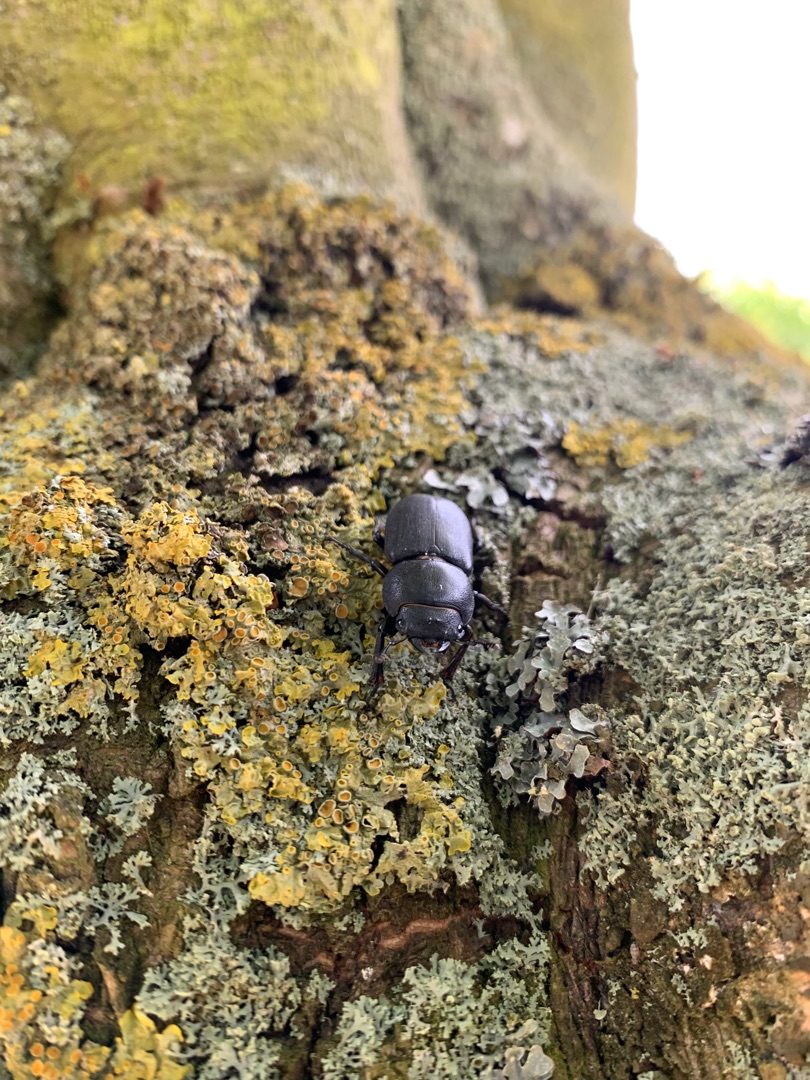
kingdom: Animalia
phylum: Arthropoda
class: Insecta
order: Coleoptera
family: Lucanidae
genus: Dorcus
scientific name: Dorcus parallelipipedus
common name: Bøghjort
